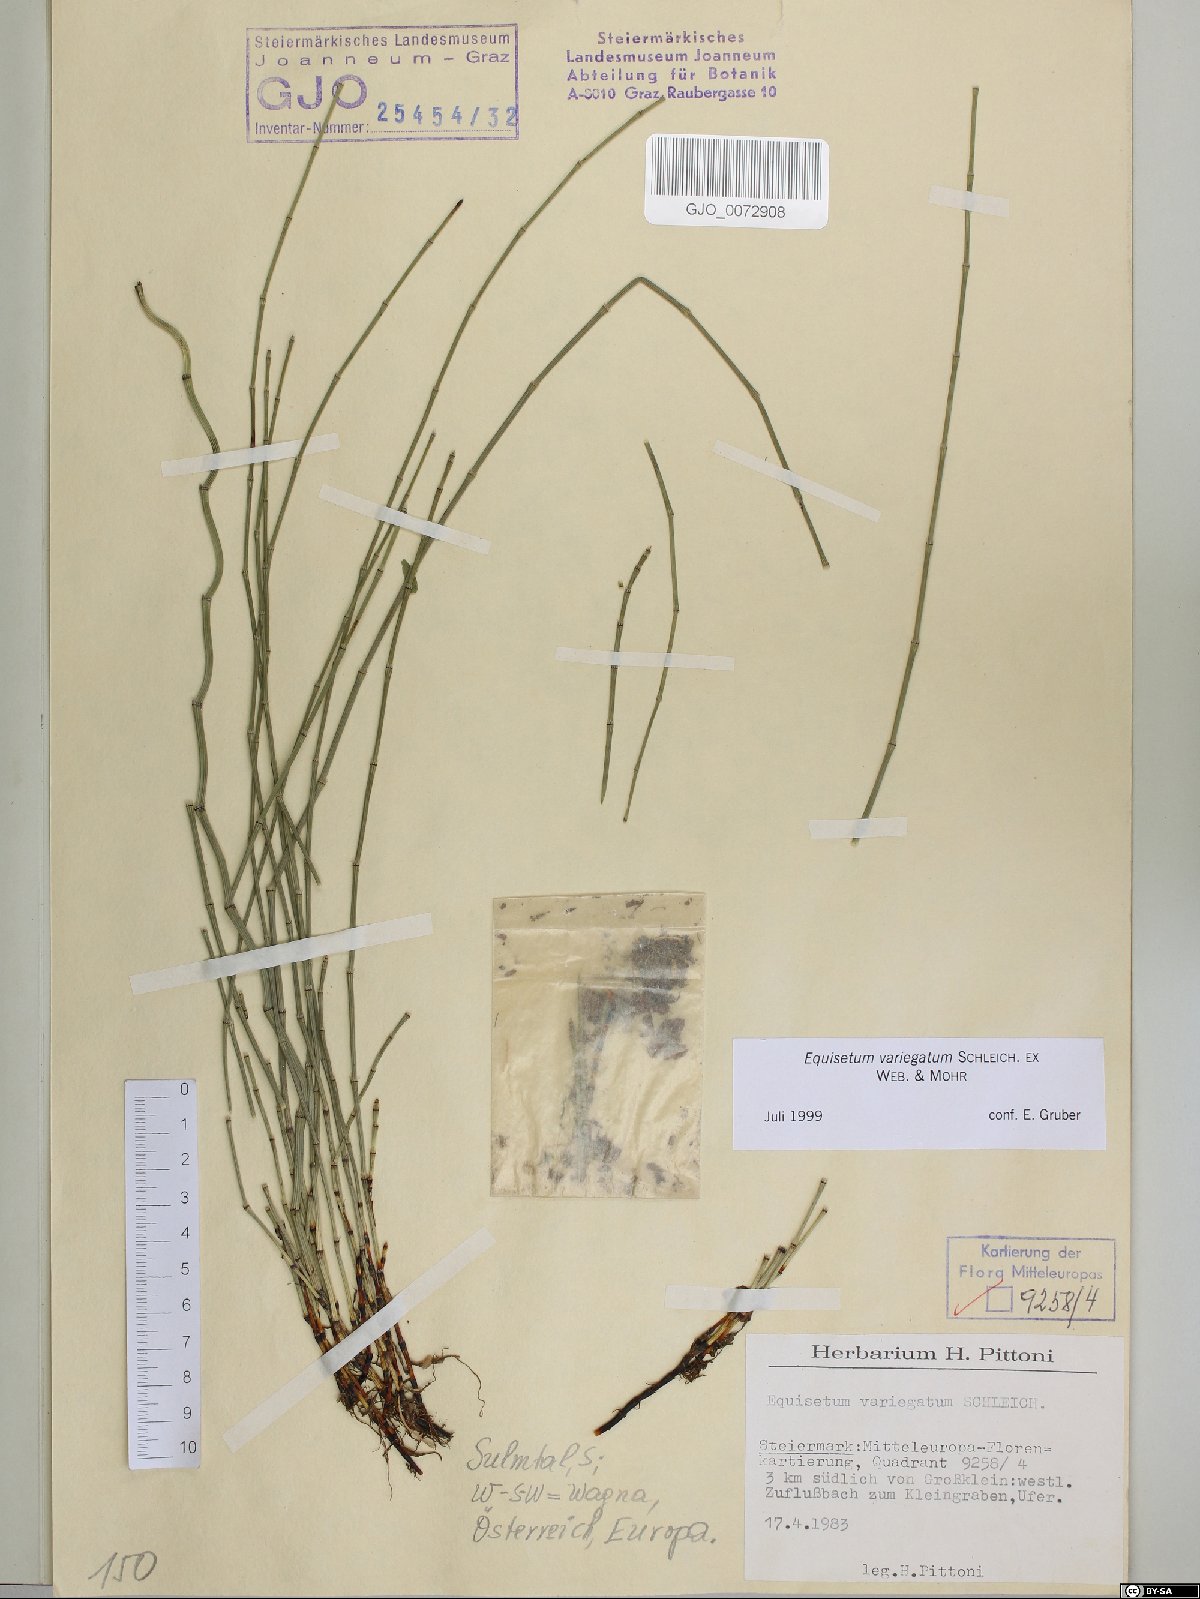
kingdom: Plantae
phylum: Tracheophyta
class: Polypodiopsida
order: Equisetales
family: Equisetaceae
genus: Equisetum
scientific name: Equisetum variegatum
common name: Variegated horsetail
